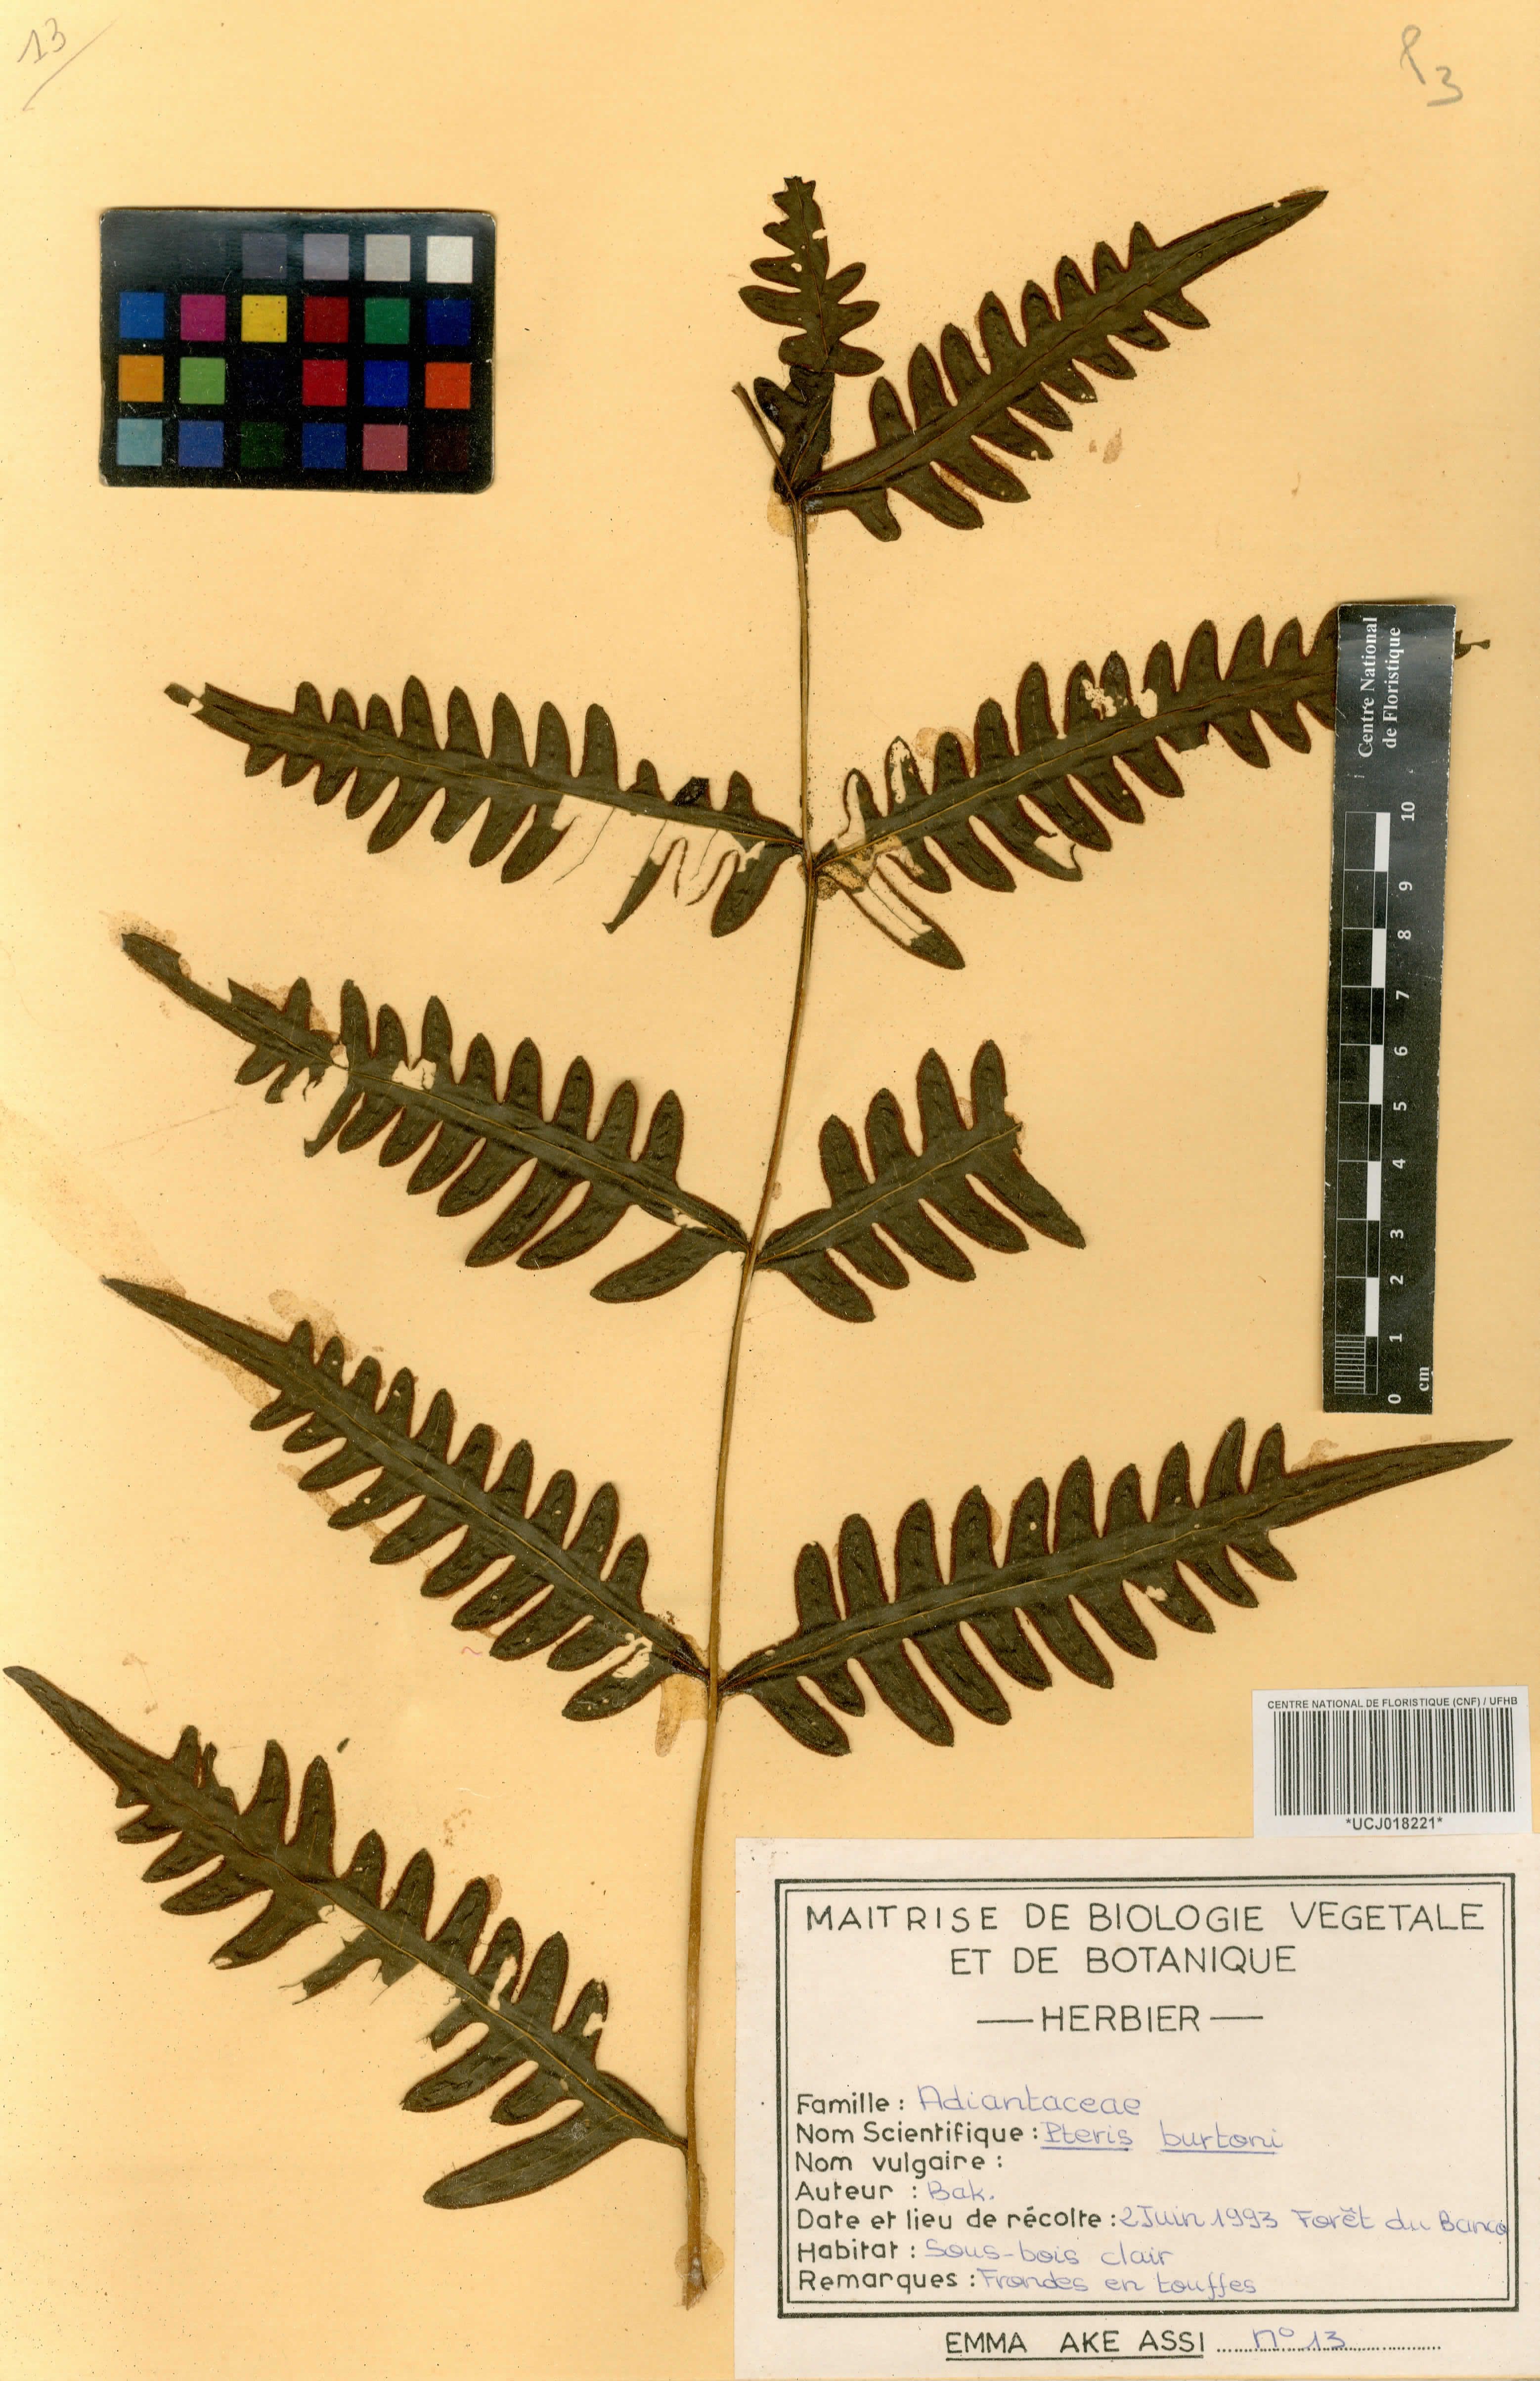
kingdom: Plantae
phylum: Tracheophyta
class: Polypodiopsida
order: Polypodiales
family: Pteridaceae
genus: Pteris
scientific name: Pteris burtonii
